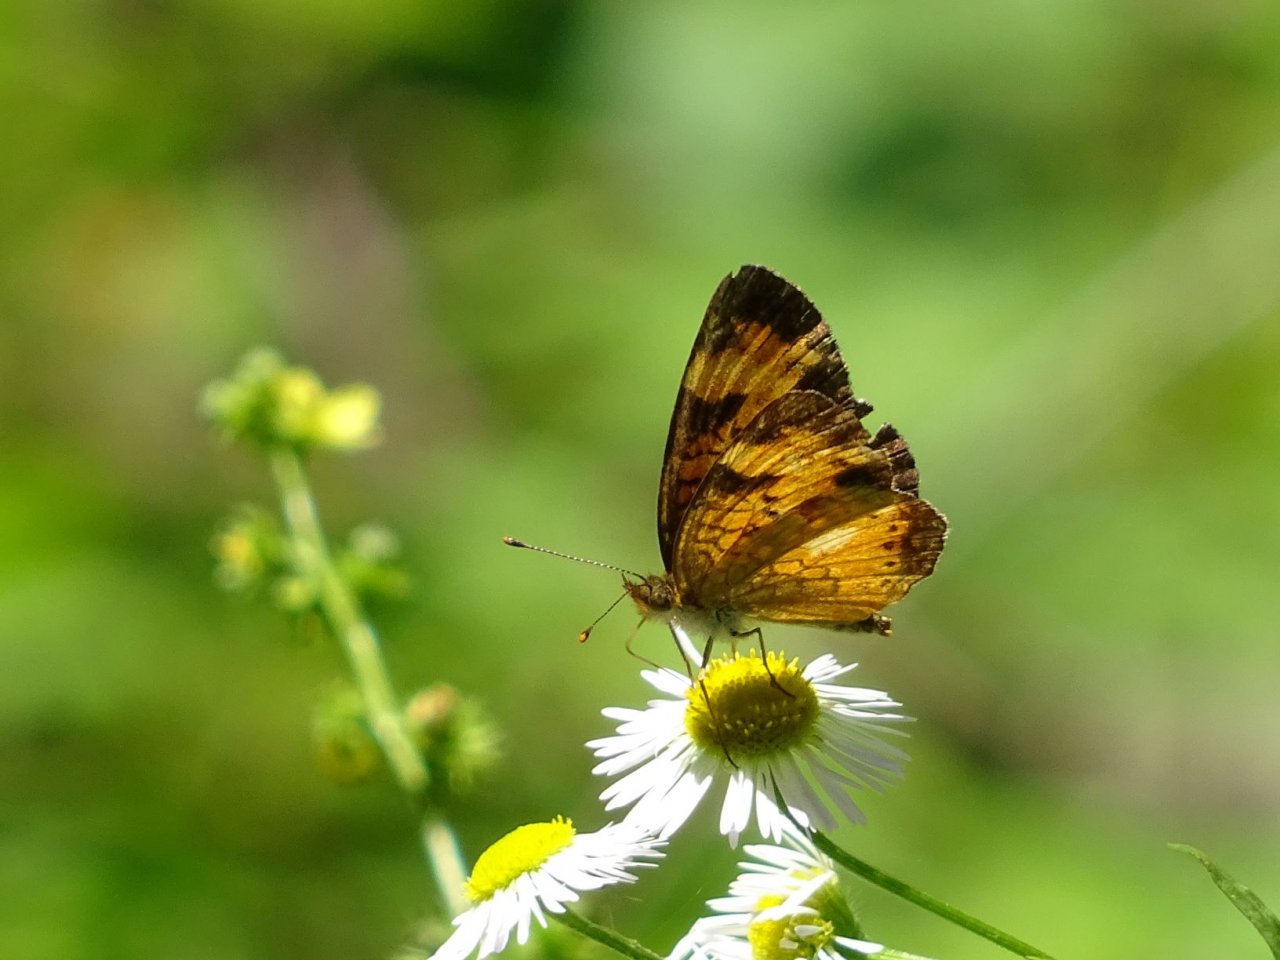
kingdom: Animalia
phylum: Arthropoda
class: Insecta
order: Lepidoptera
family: Nymphalidae
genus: Phyciodes
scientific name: Phyciodes tharos
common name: Northern Crescent
